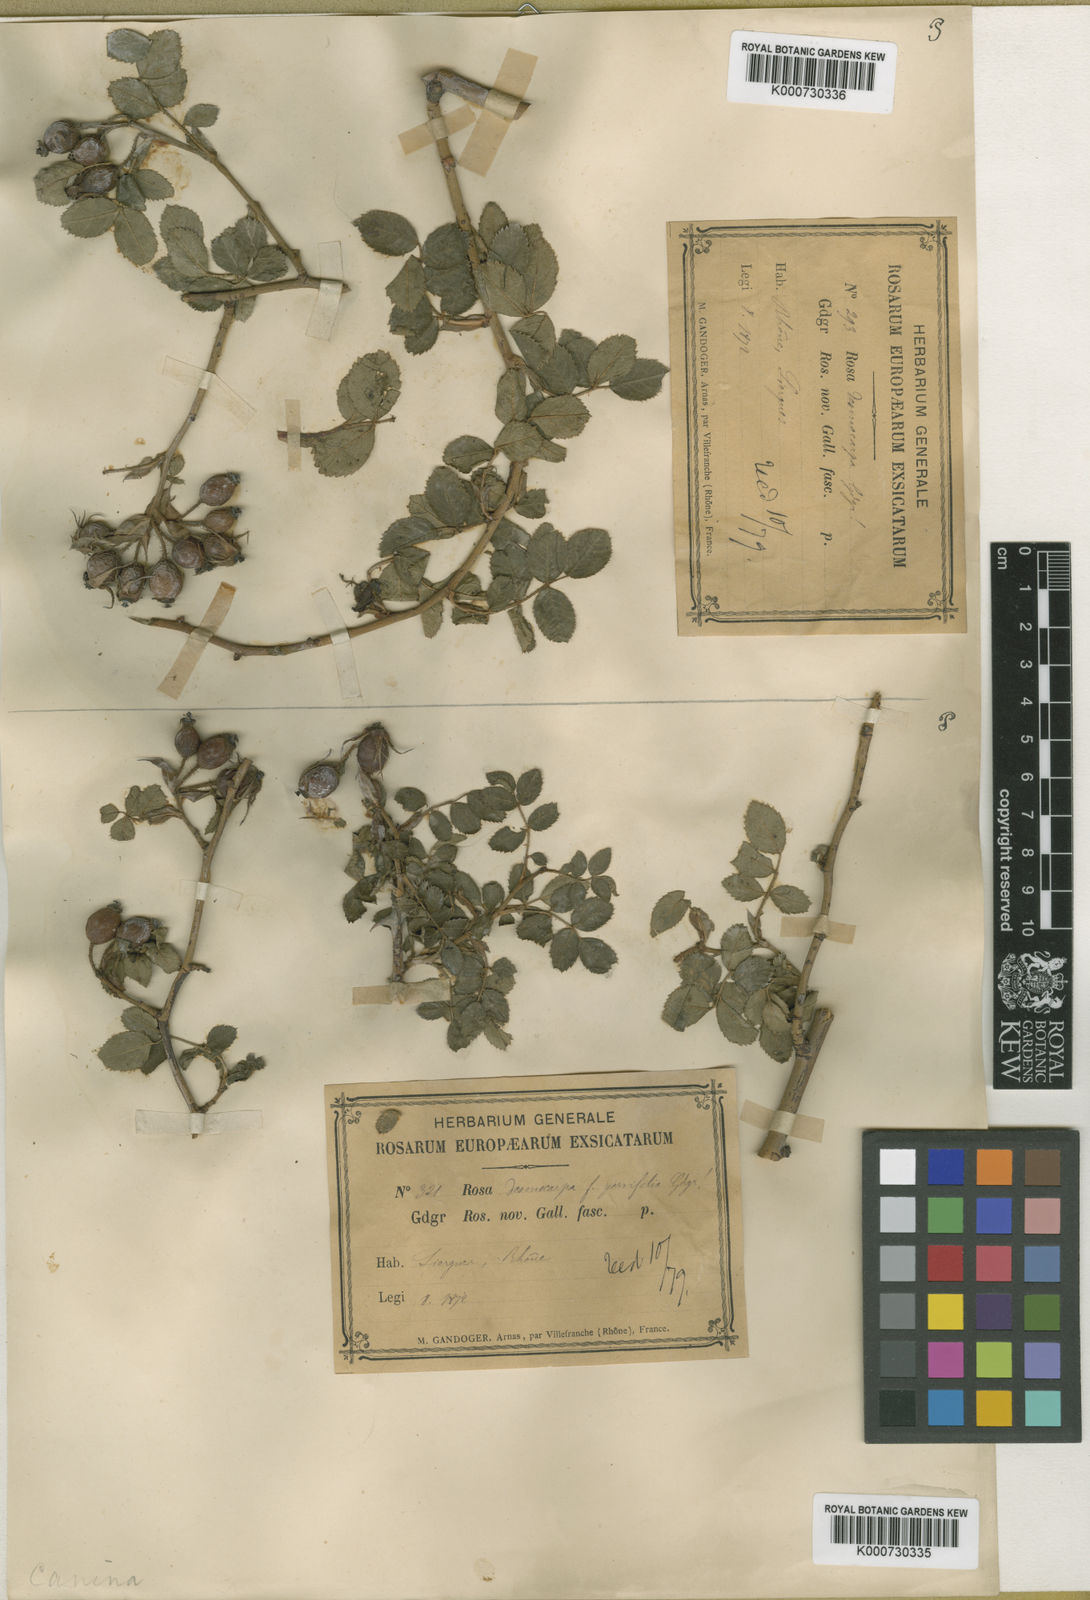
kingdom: Plantae
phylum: Tracheophyta
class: Magnoliopsida
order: Rosales
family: Rosaceae
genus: Rosa
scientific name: Rosa canina
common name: Dog rose
